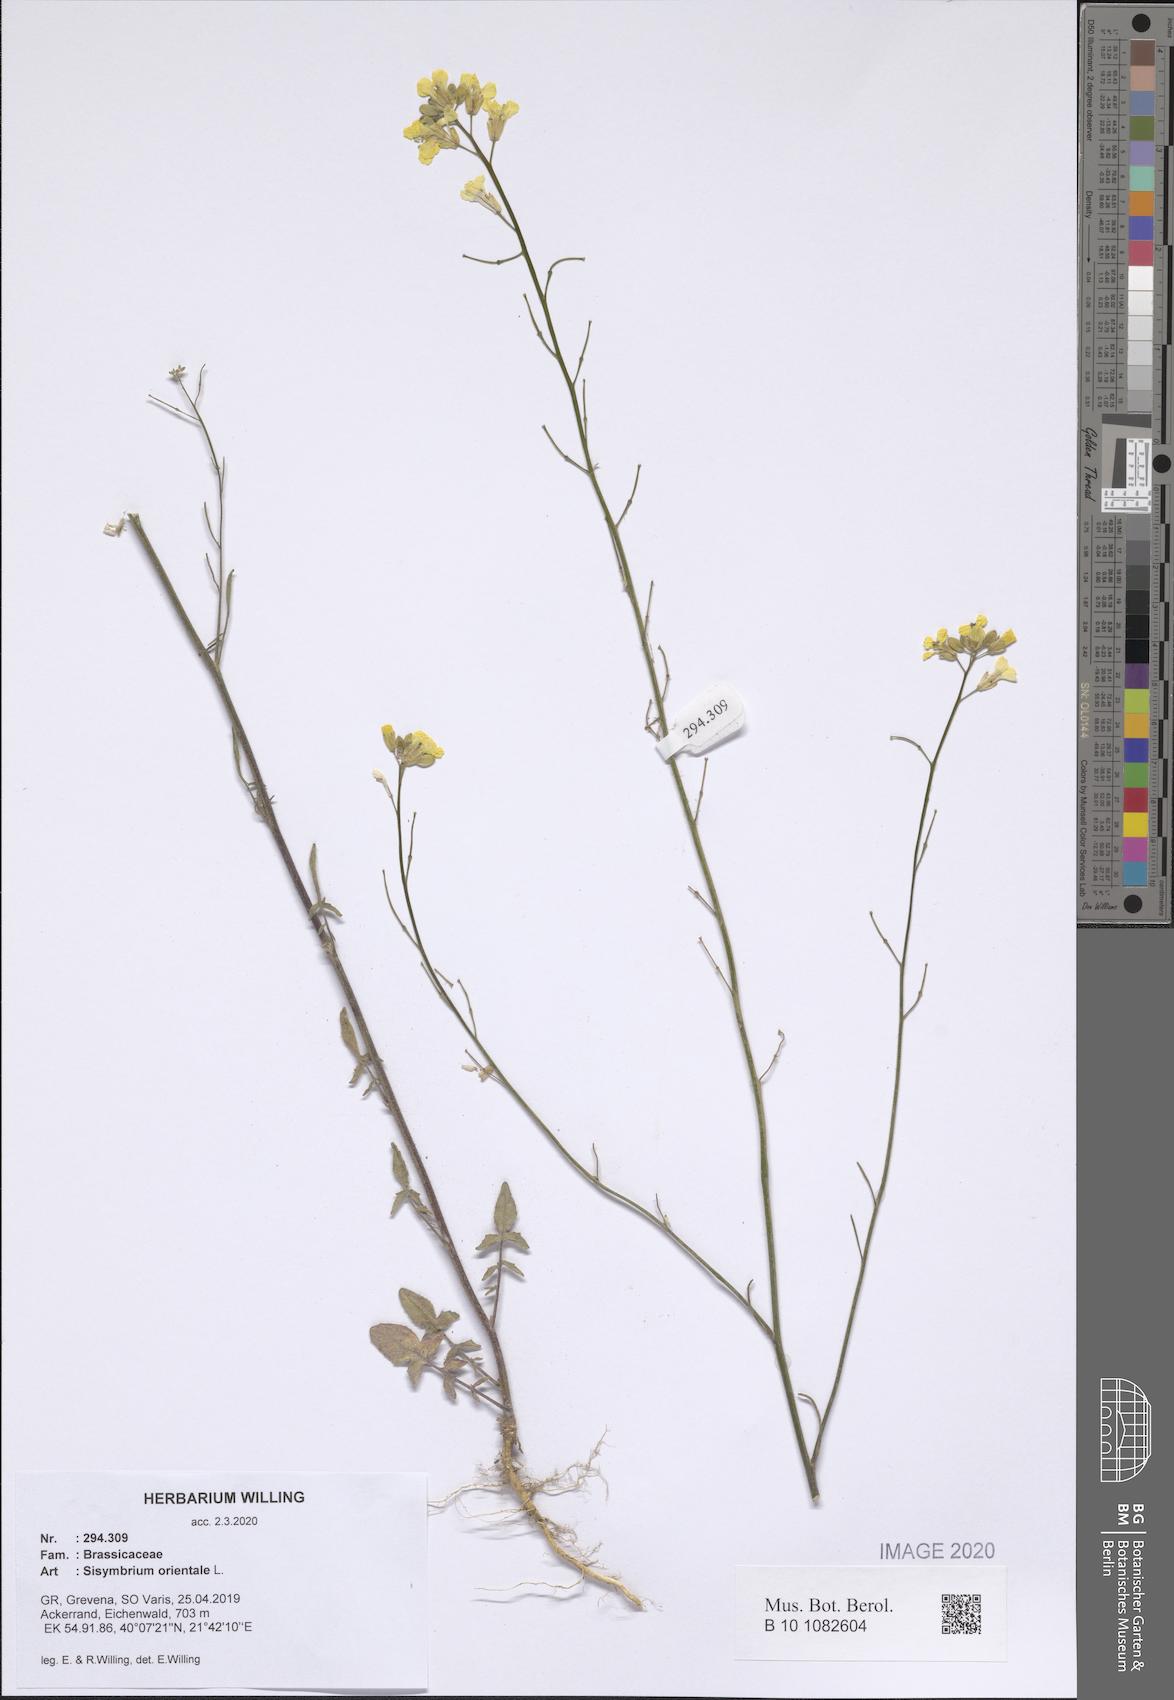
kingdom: Plantae
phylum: Tracheophyta
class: Magnoliopsida
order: Brassicales
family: Brassicaceae
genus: Sisymbrium
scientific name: Sisymbrium orientale
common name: Eastern rocket
